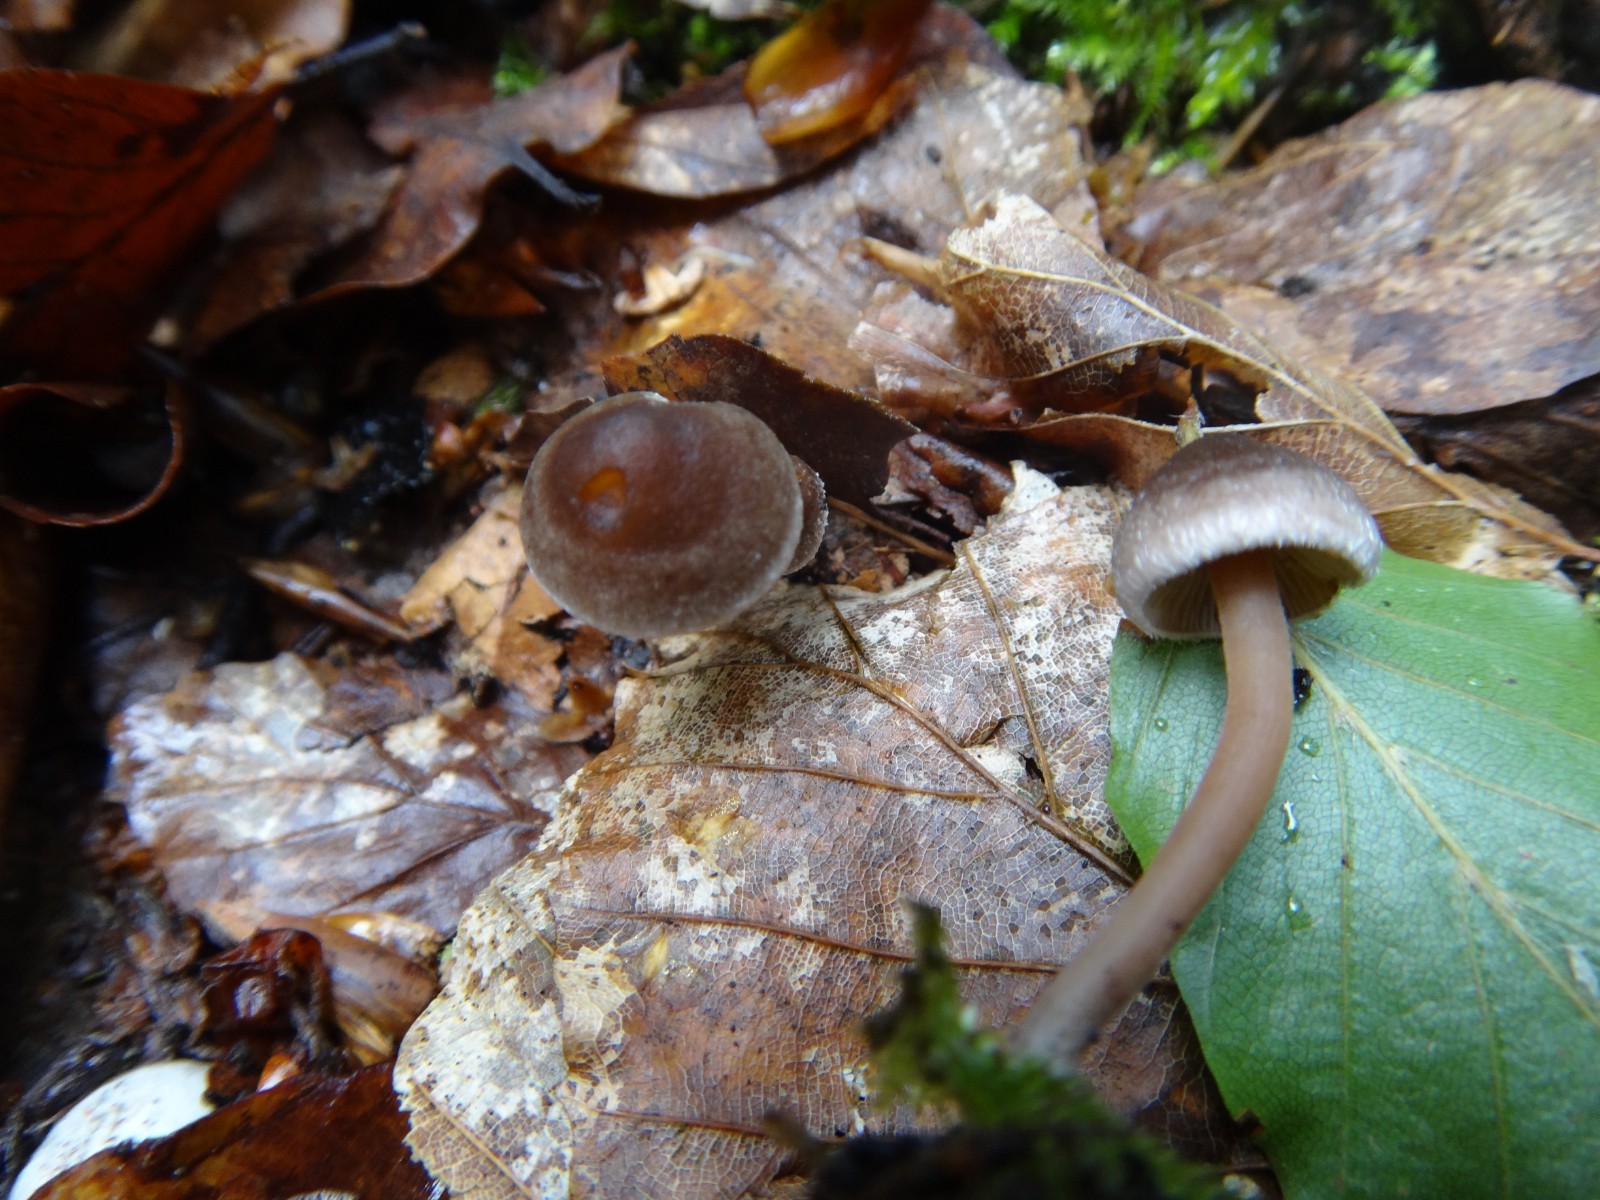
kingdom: Fungi
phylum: Basidiomycota
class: Agaricomycetes
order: Agaricales
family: Inocybaceae
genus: Inocybe
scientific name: Inocybe petiginosa
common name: liden trævlhat
